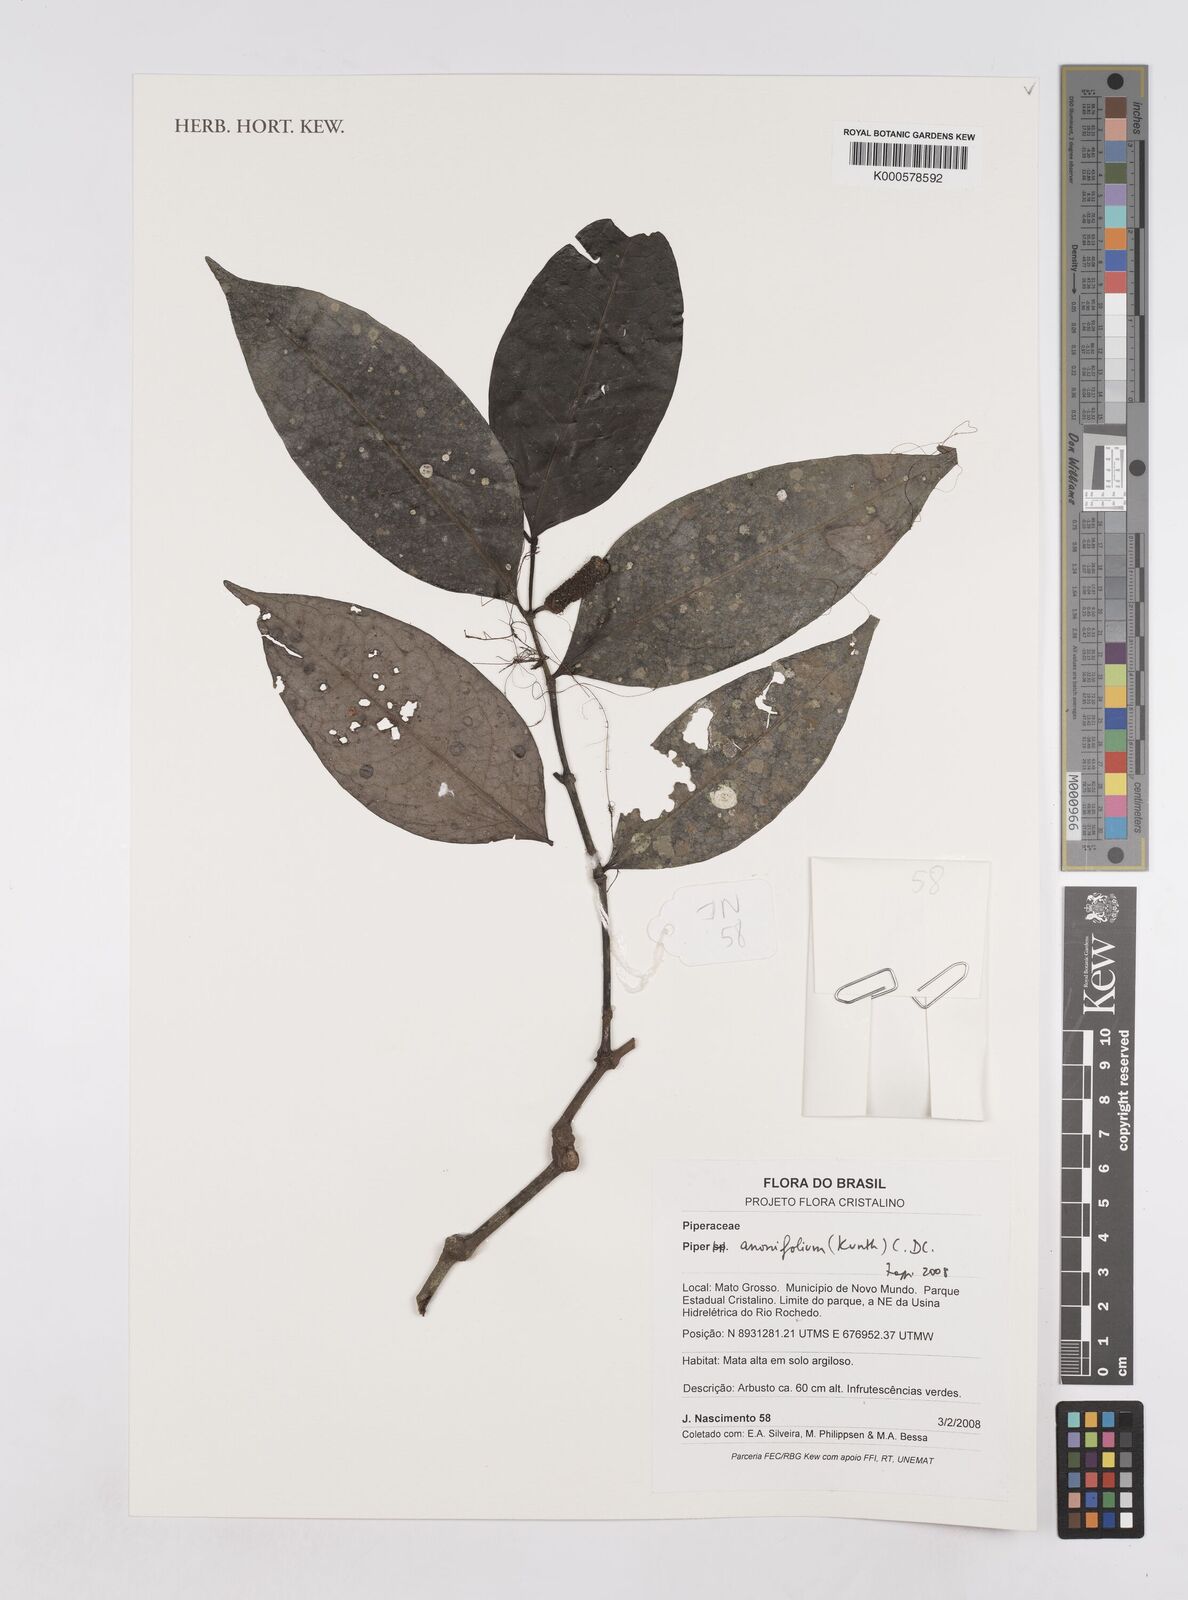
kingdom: Plantae
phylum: Tracheophyta
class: Magnoliopsida
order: Piperales
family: Piperaceae
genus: Piper
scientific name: Piper
